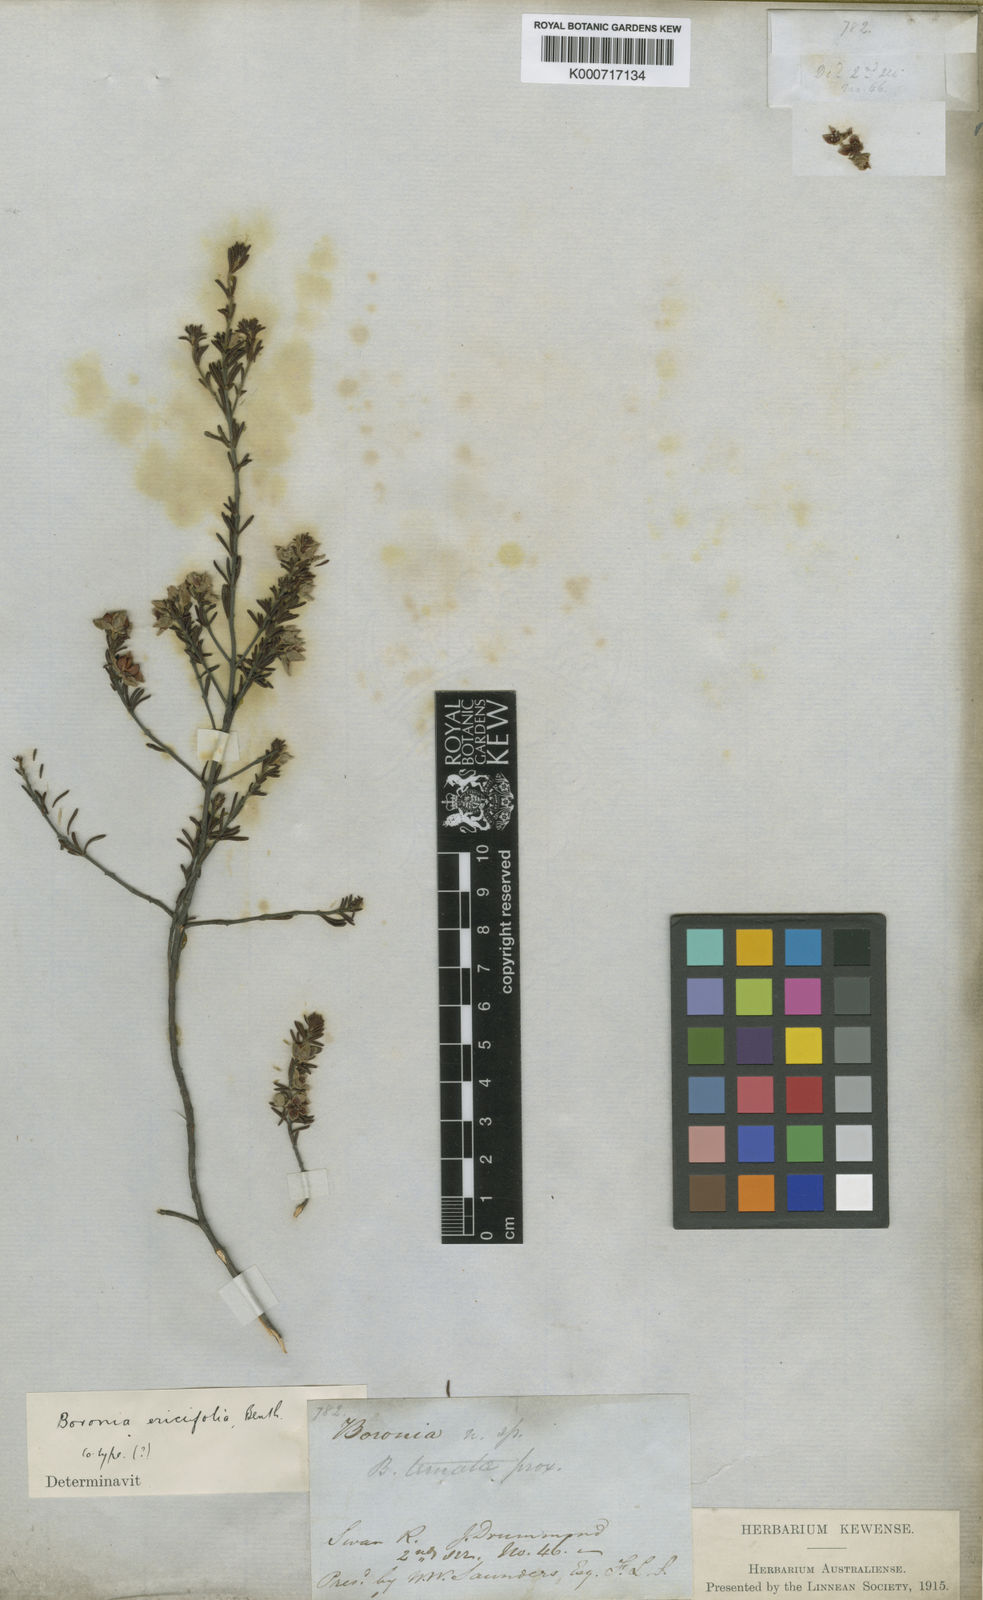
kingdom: Plantae
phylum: Tracheophyta
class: Magnoliopsida
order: Sapindales
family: Rutaceae
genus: Boronia
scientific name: Boronia ericifolia
